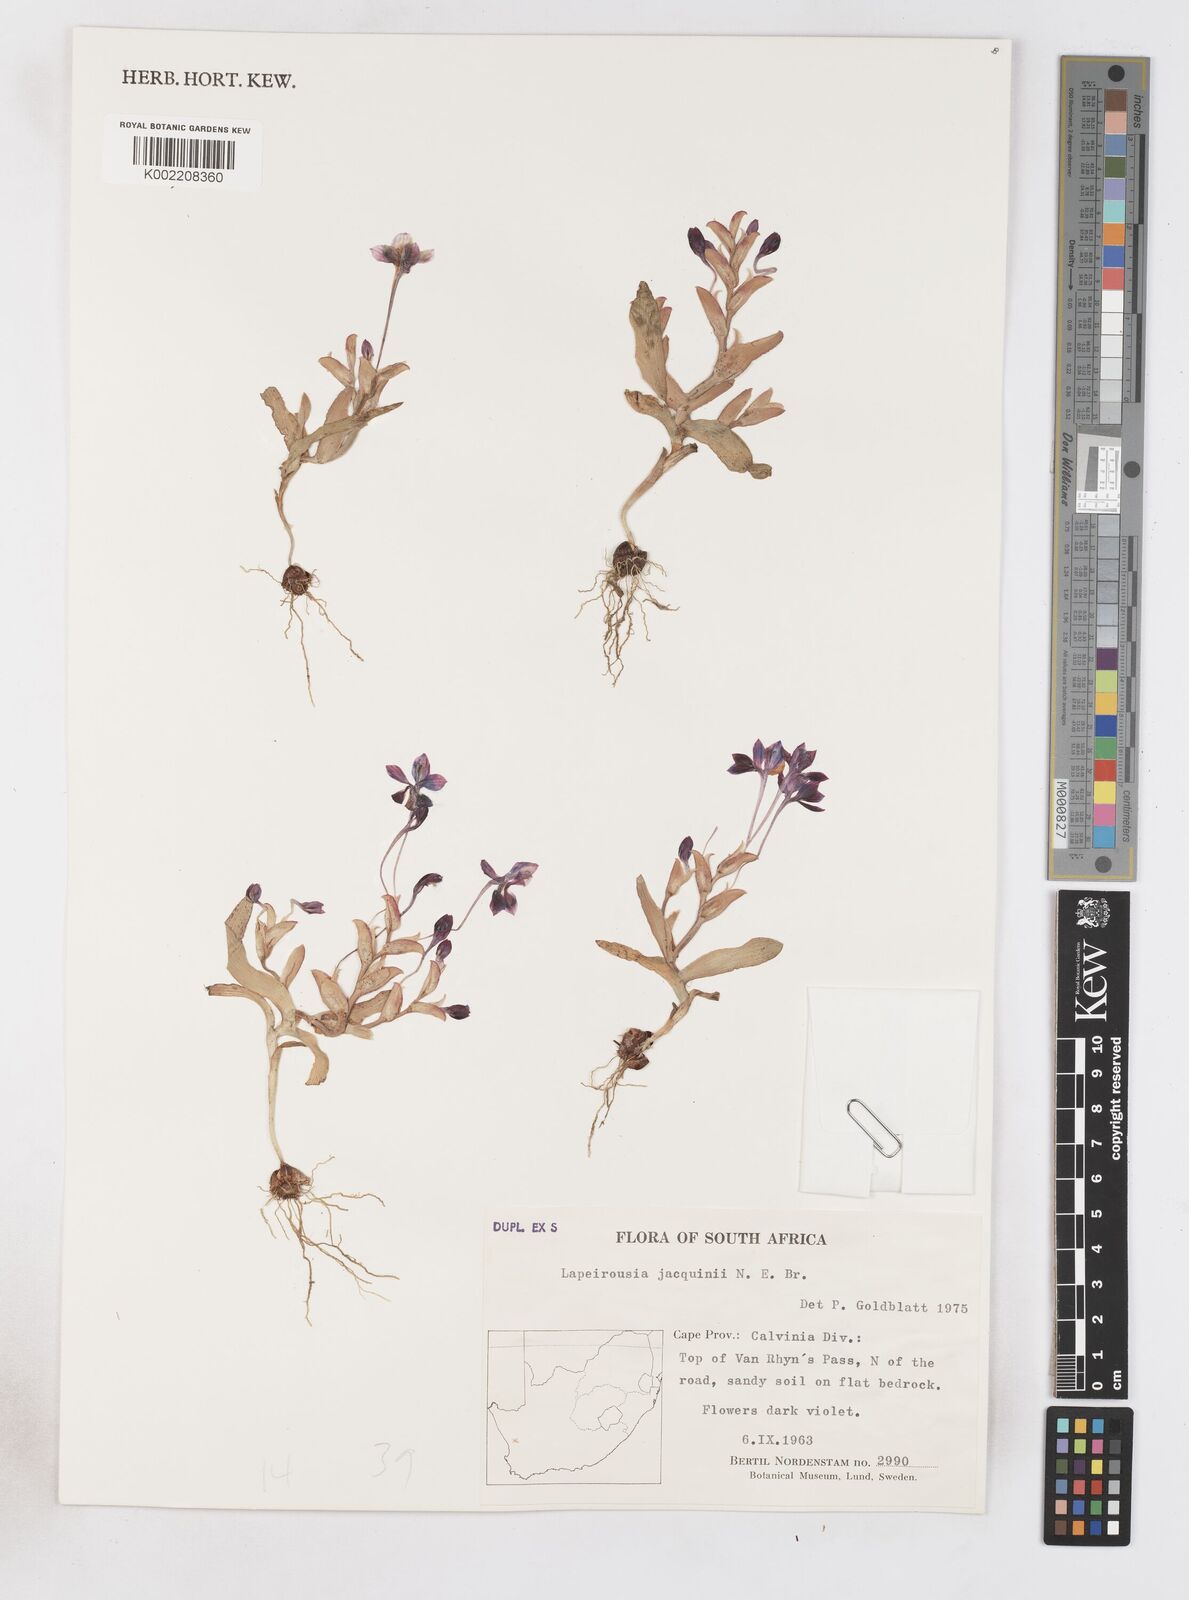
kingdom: Plantae
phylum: Tracheophyta
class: Liliopsida
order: Asparagales
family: Iridaceae
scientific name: Iridaceae
